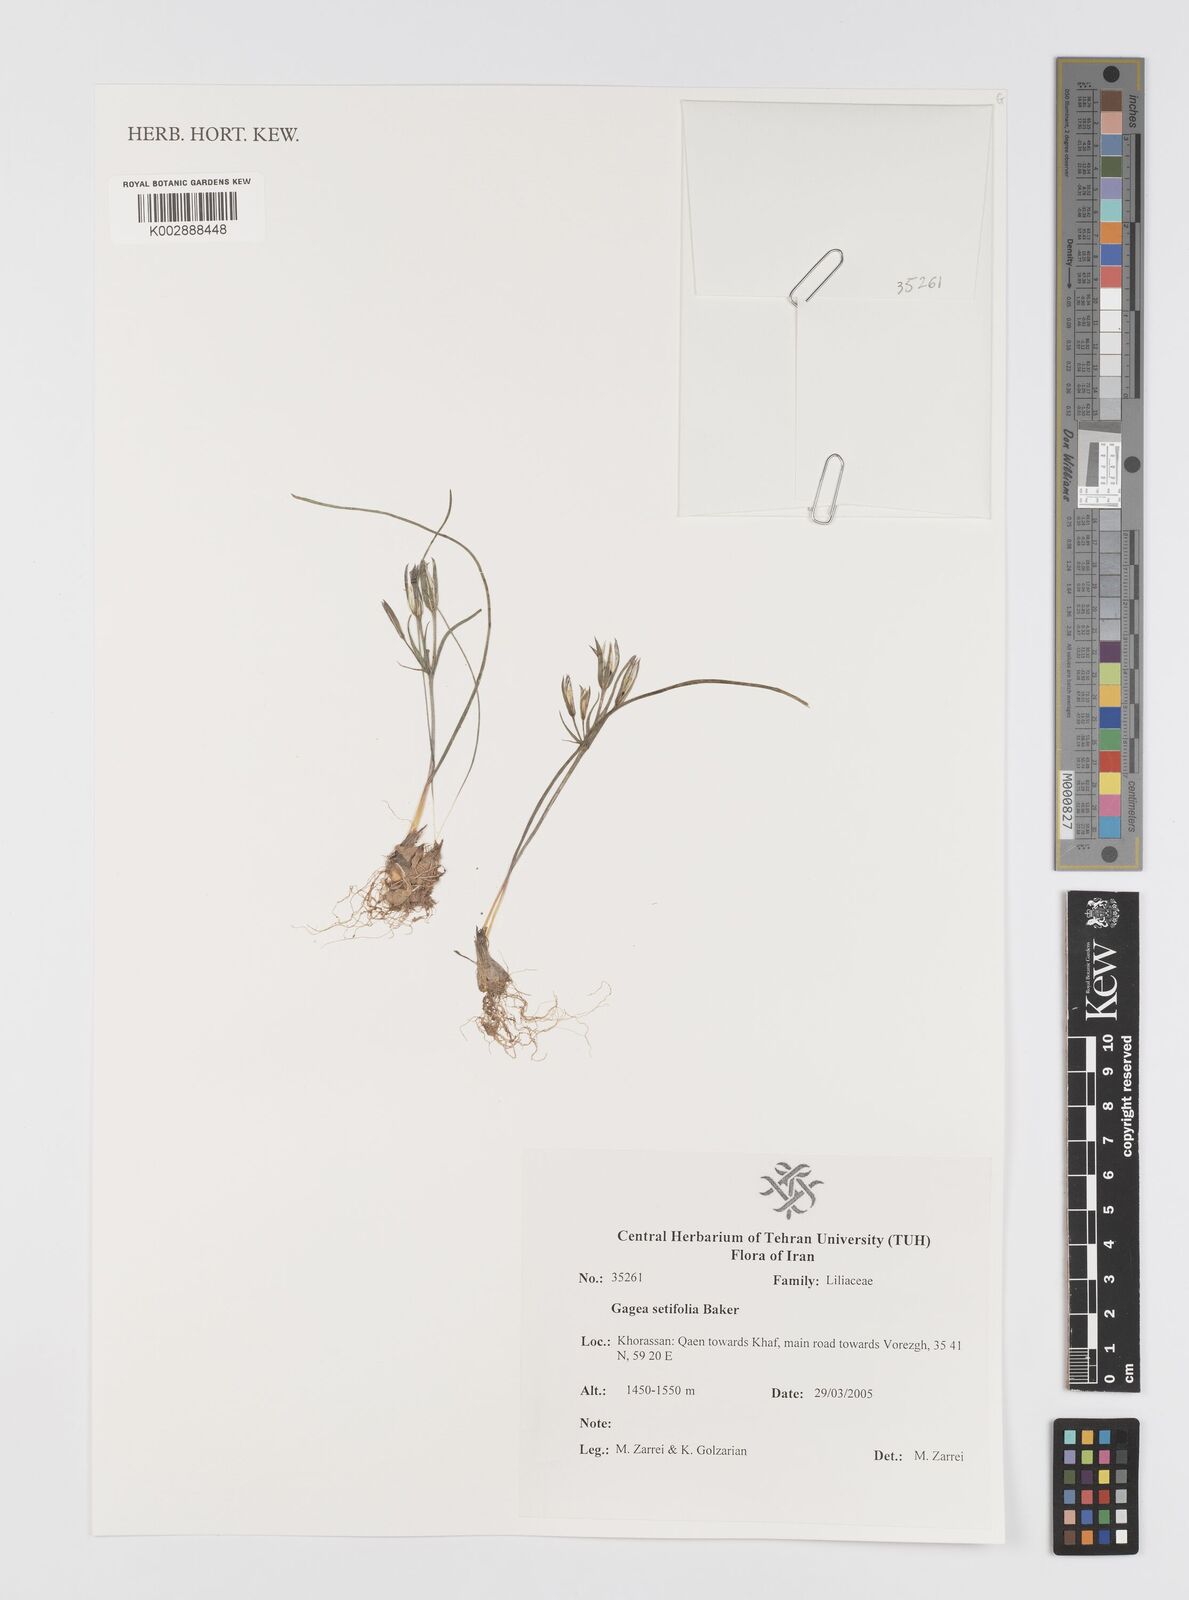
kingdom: Plantae
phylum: Tracheophyta
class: Liliopsida
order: Liliales
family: Liliaceae
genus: Gagea
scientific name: Gagea setifolia
